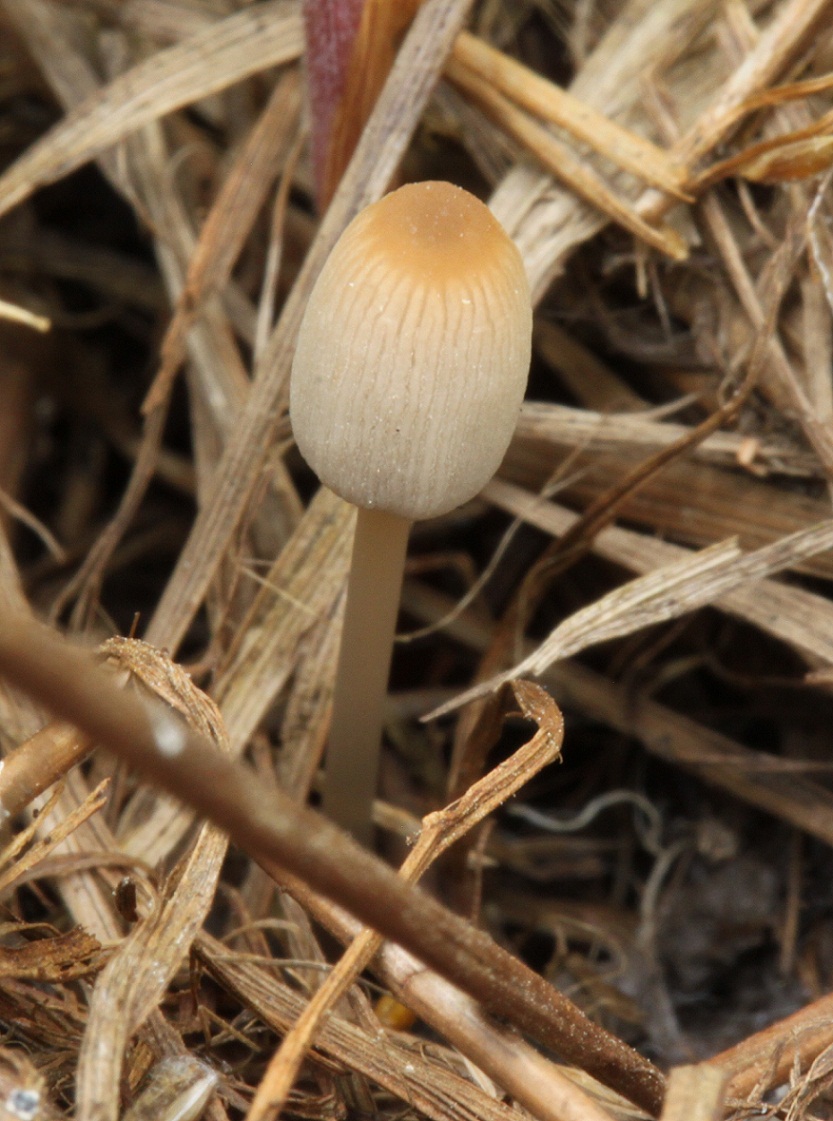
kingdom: Fungi
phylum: Basidiomycota
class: Agaricomycetes
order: Agaricales
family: Psathyrellaceae
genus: Parasola
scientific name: Parasola lactea
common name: glat hjulhat
